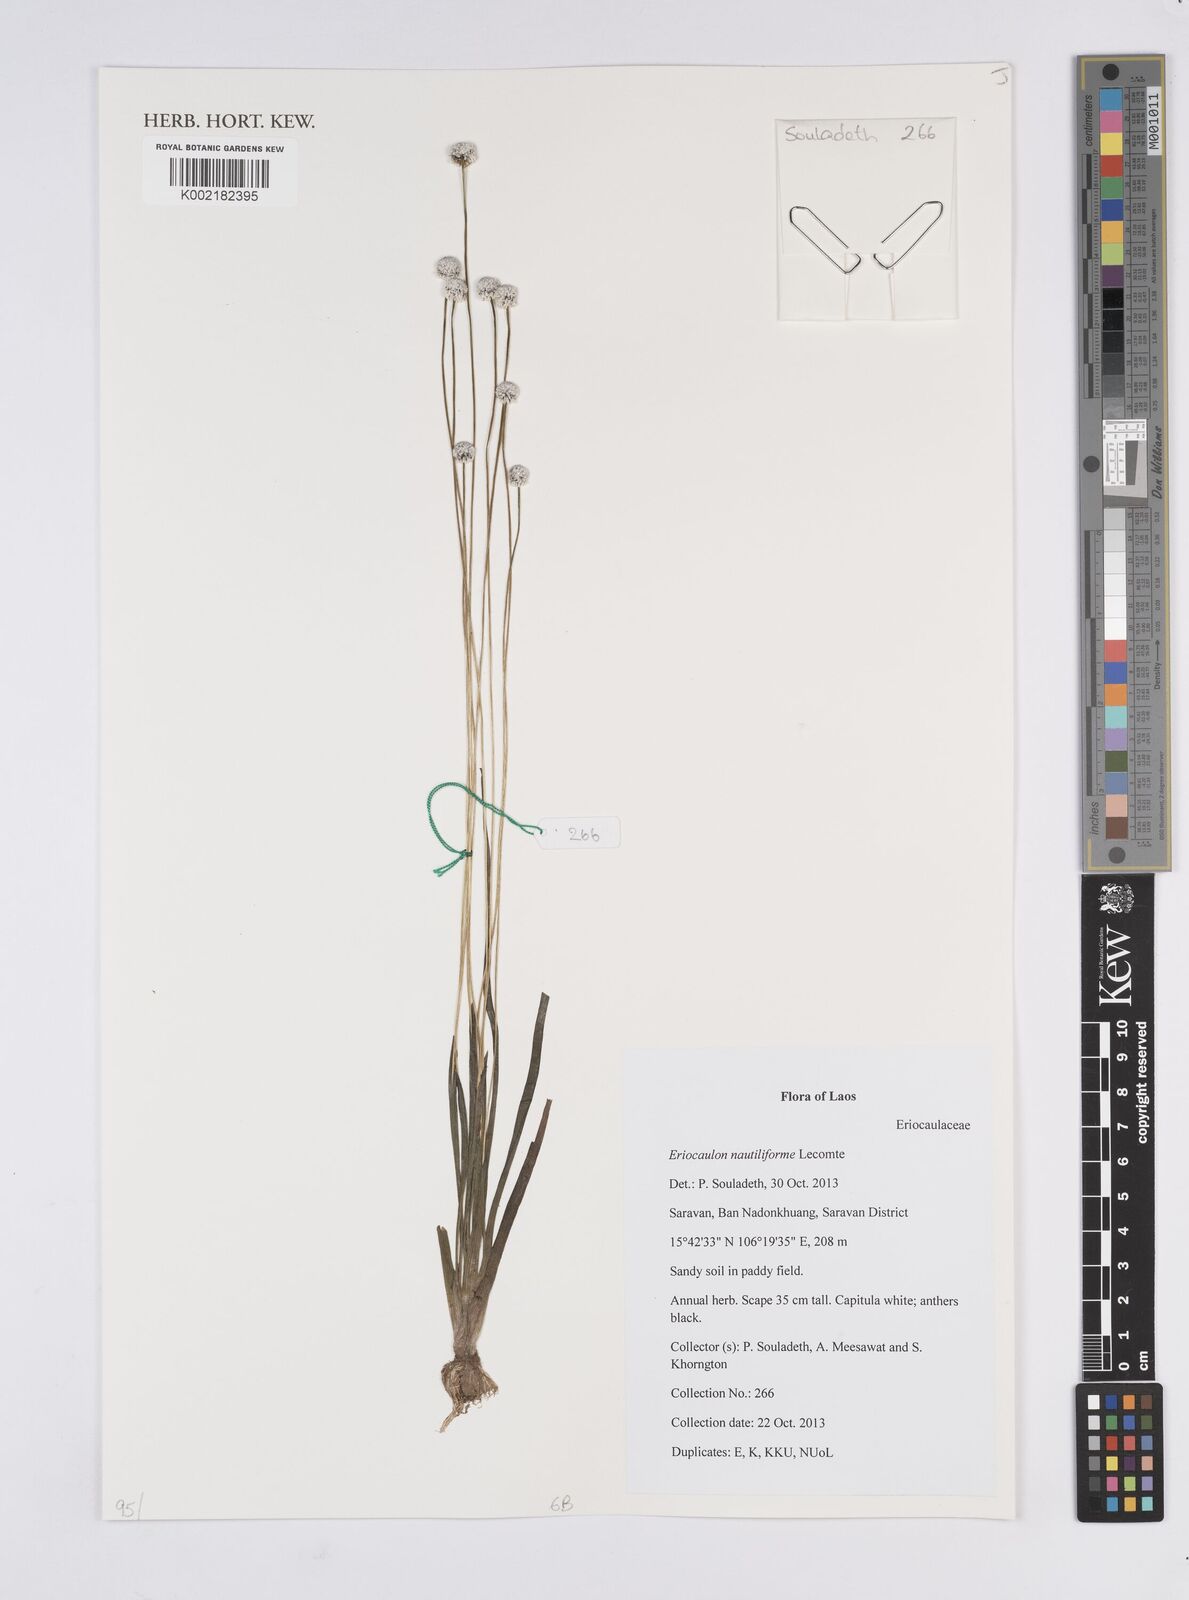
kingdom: Plantae
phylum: Tracheophyta
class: Liliopsida
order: Poales
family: Eriocaulaceae
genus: Eriocaulon
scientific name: Eriocaulon nautiliforme
